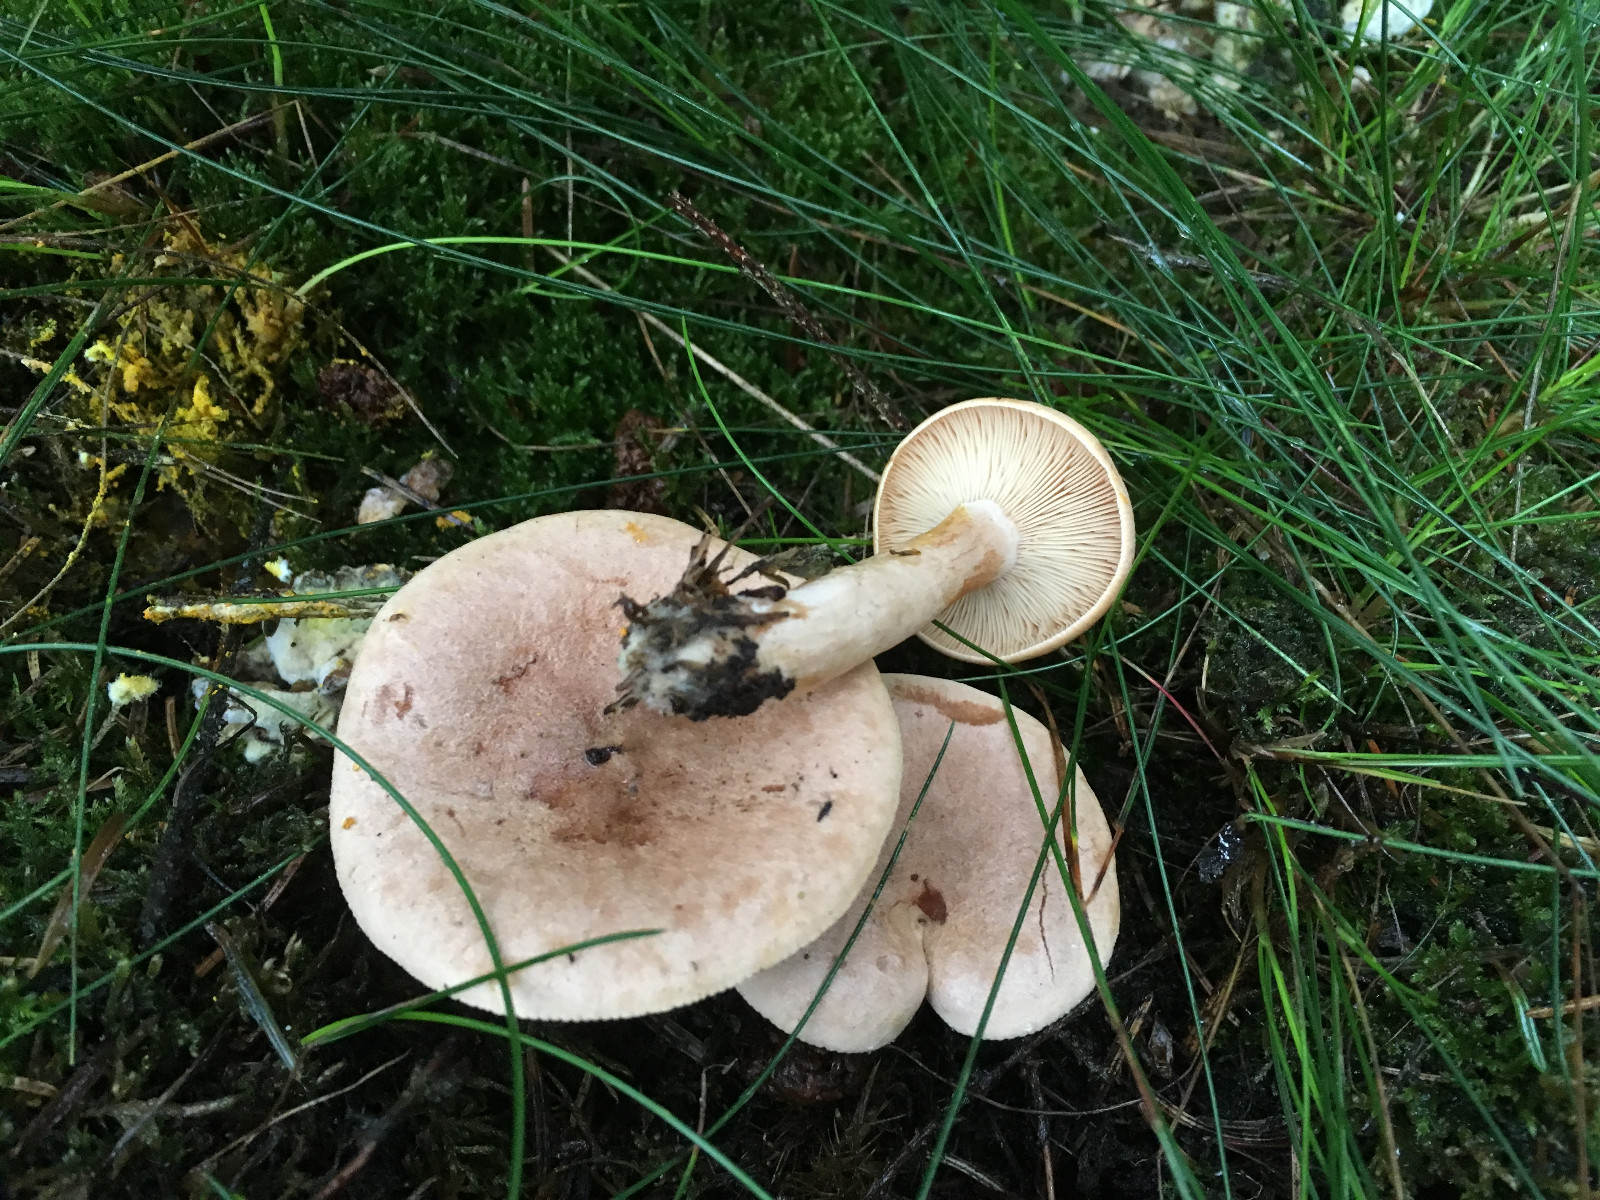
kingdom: Fungi
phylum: Basidiomycota
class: Agaricomycetes
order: Russulales
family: Russulaceae
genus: Lactarius
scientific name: Lactarius helvus
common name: mose-mælkehat
